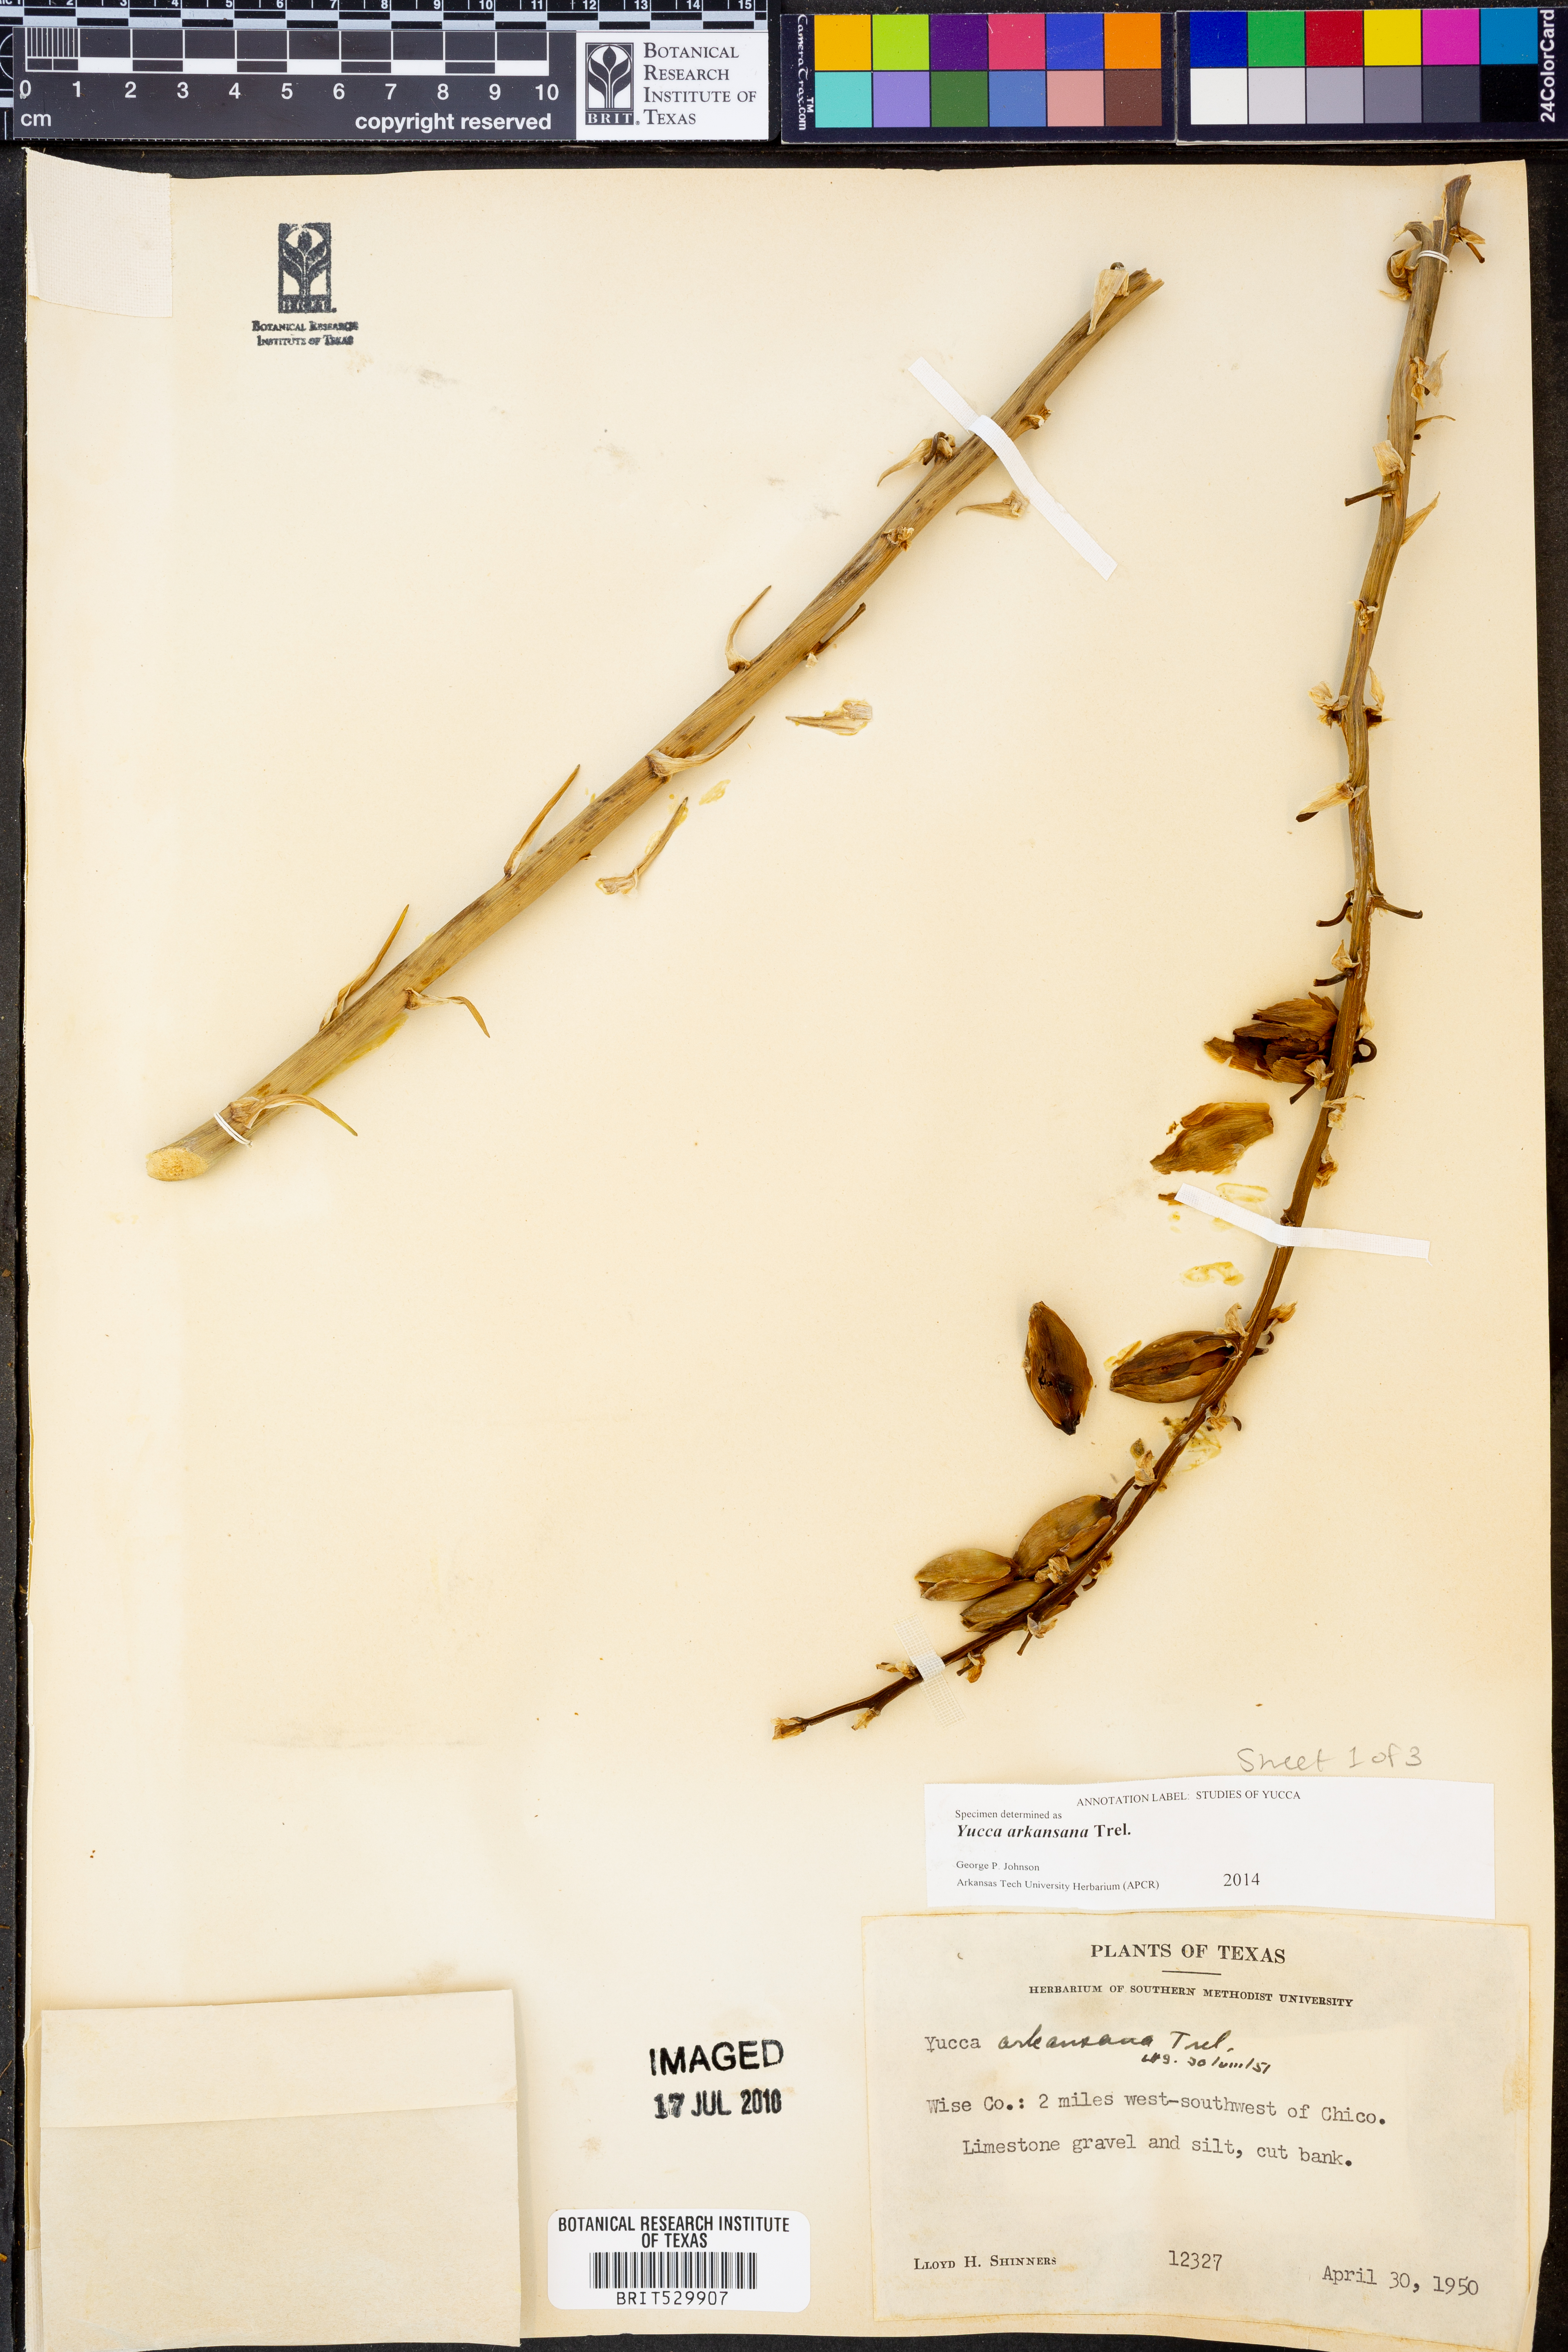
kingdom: Plantae
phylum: Tracheophyta
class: Liliopsida
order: Asparagales
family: Asparagaceae
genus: Yucca
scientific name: Yucca arkansana
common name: Arkansas yucca
